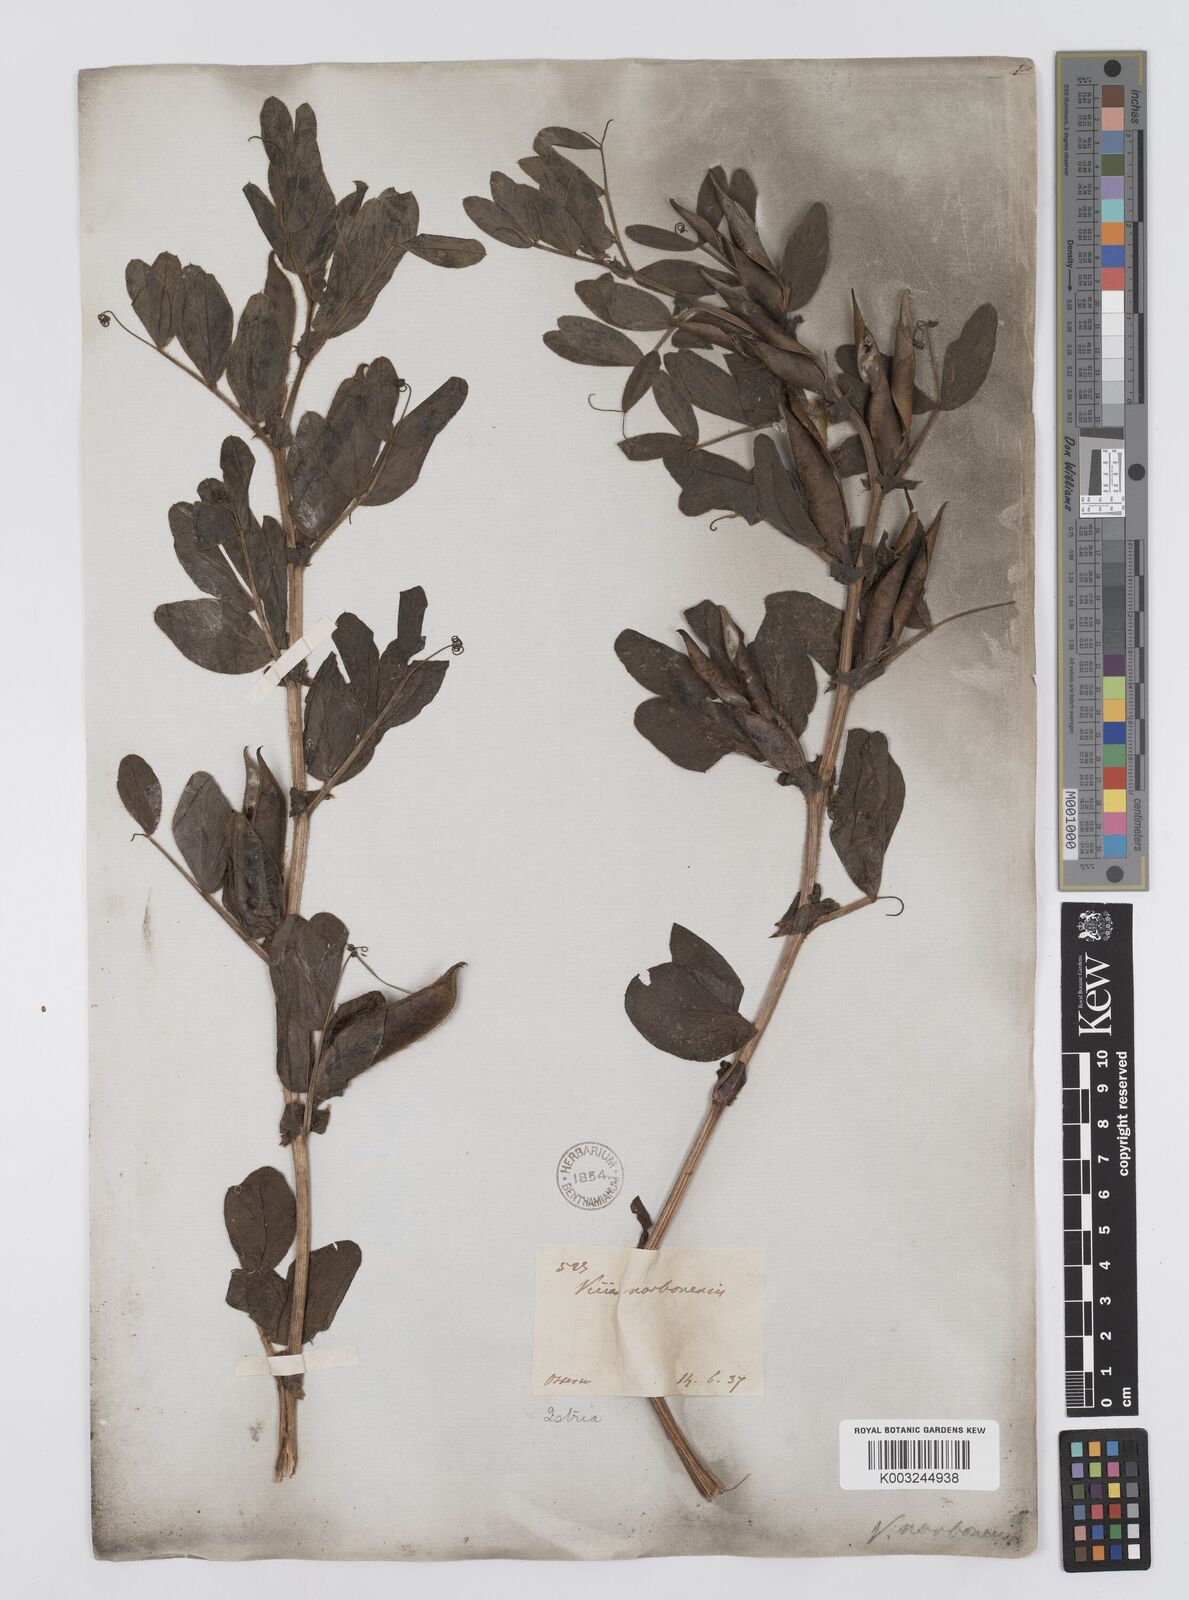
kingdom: Plantae
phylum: Tracheophyta
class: Magnoliopsida
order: Fabales
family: Fabaceae
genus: Vicia
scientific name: Vicia narbonensis
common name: Narbonne vetch
